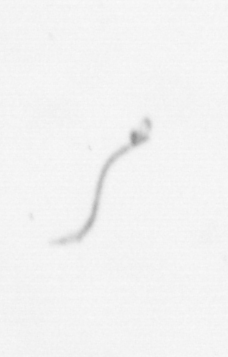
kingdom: Chromista
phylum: Ochrophyta
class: Bacillariophyceae
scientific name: Bacillariophyceae
